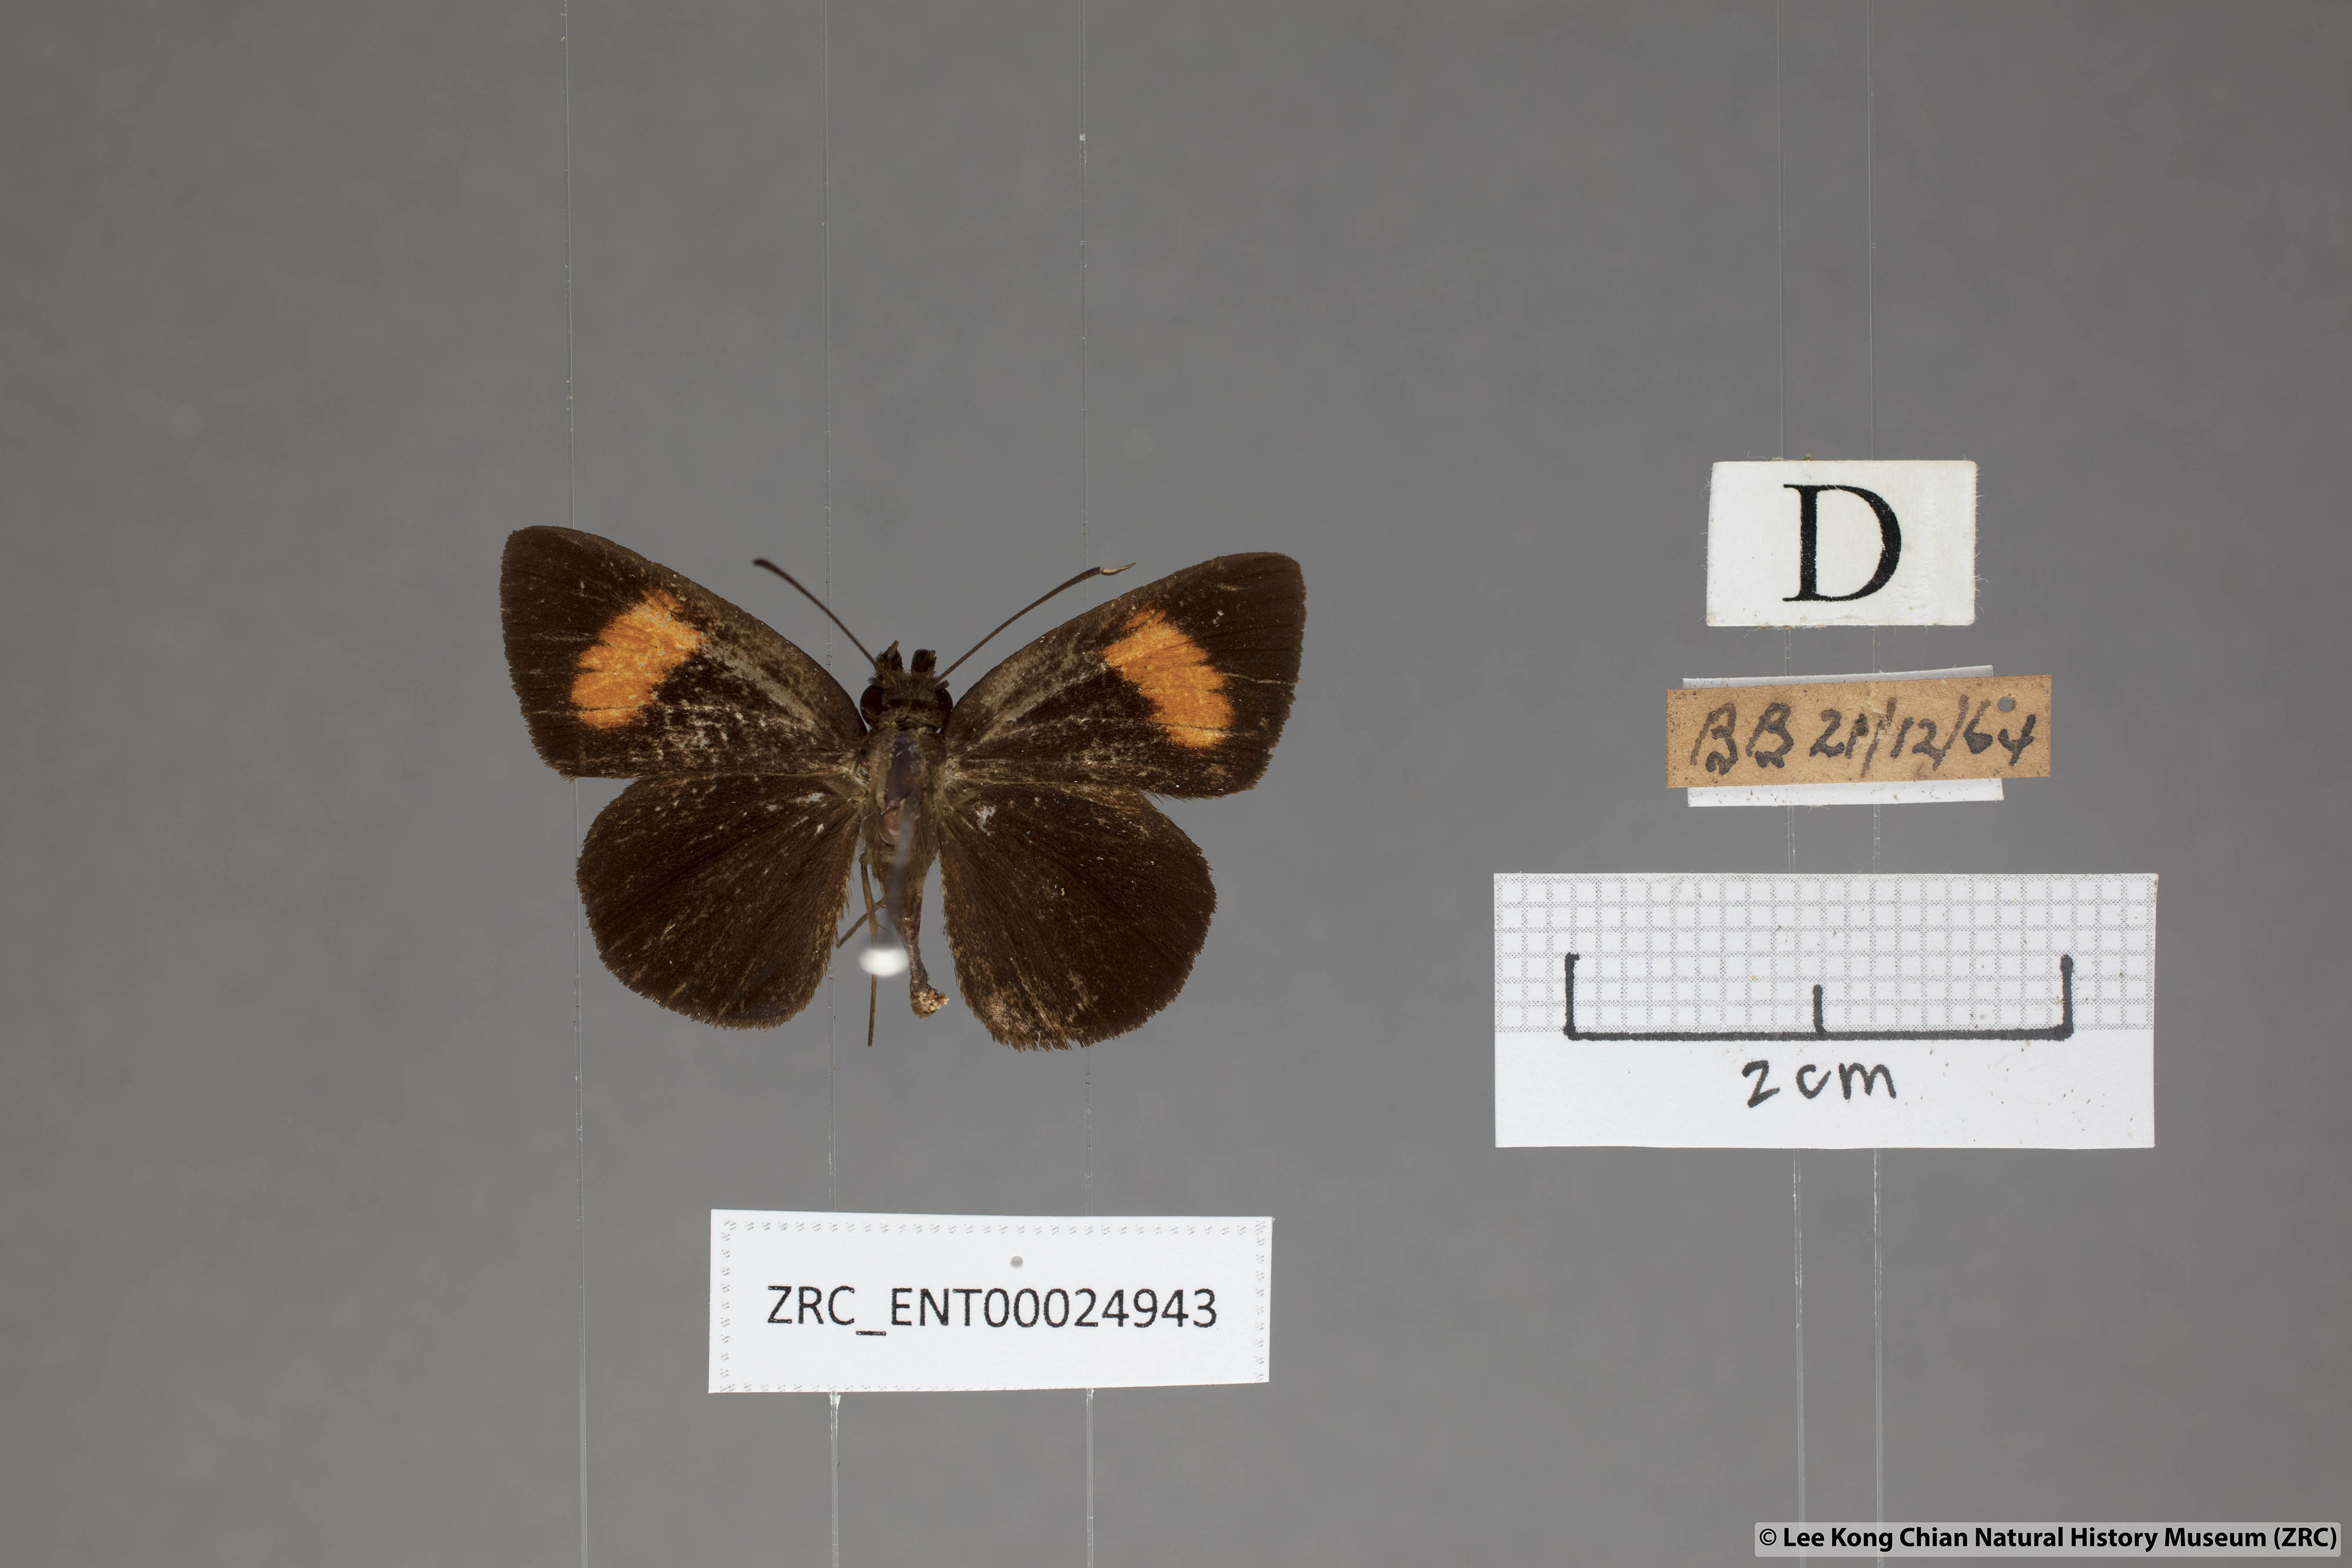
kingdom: Animalia
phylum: Arthropoda
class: Insecta
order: Lepidoptera
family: Hesperiidae
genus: Koruthaialos
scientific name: Koruthaialos sindu
